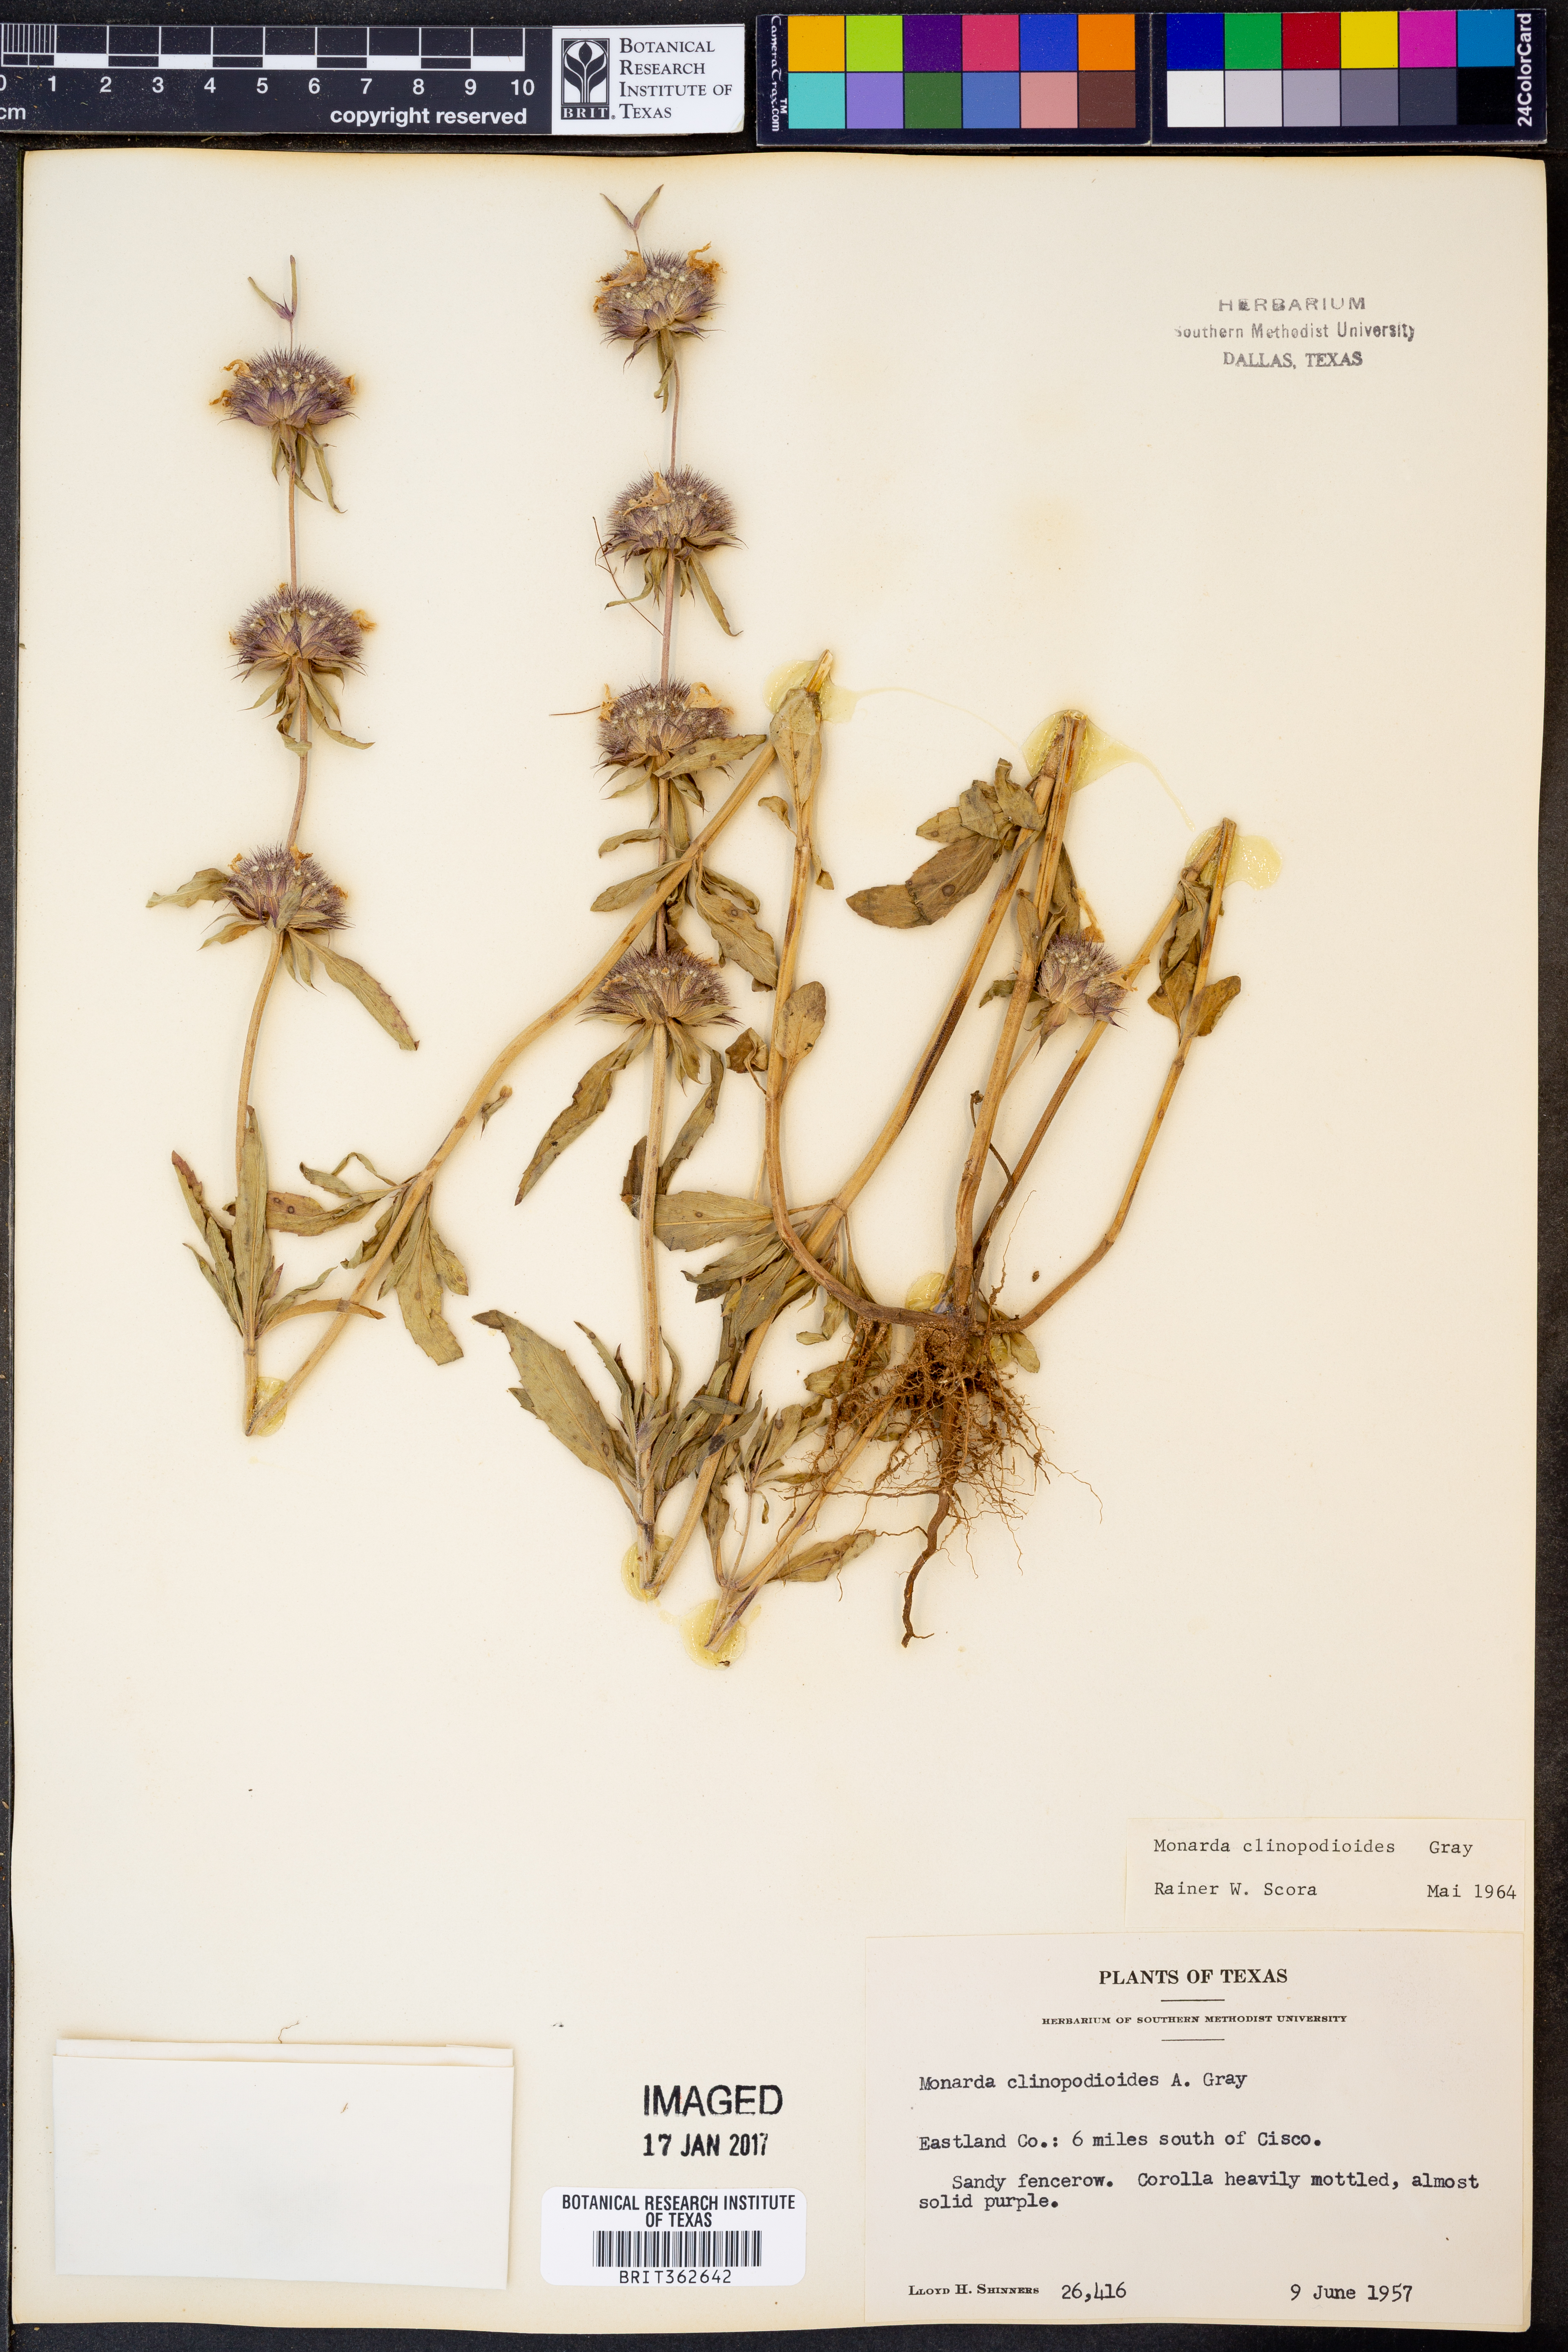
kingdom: Plantae
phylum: Tracheophyta
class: Magnoliopsida
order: Lamiales
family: Lamiaceae
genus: Monarda
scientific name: Monarda clinopodioides
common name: Basil beebalm
